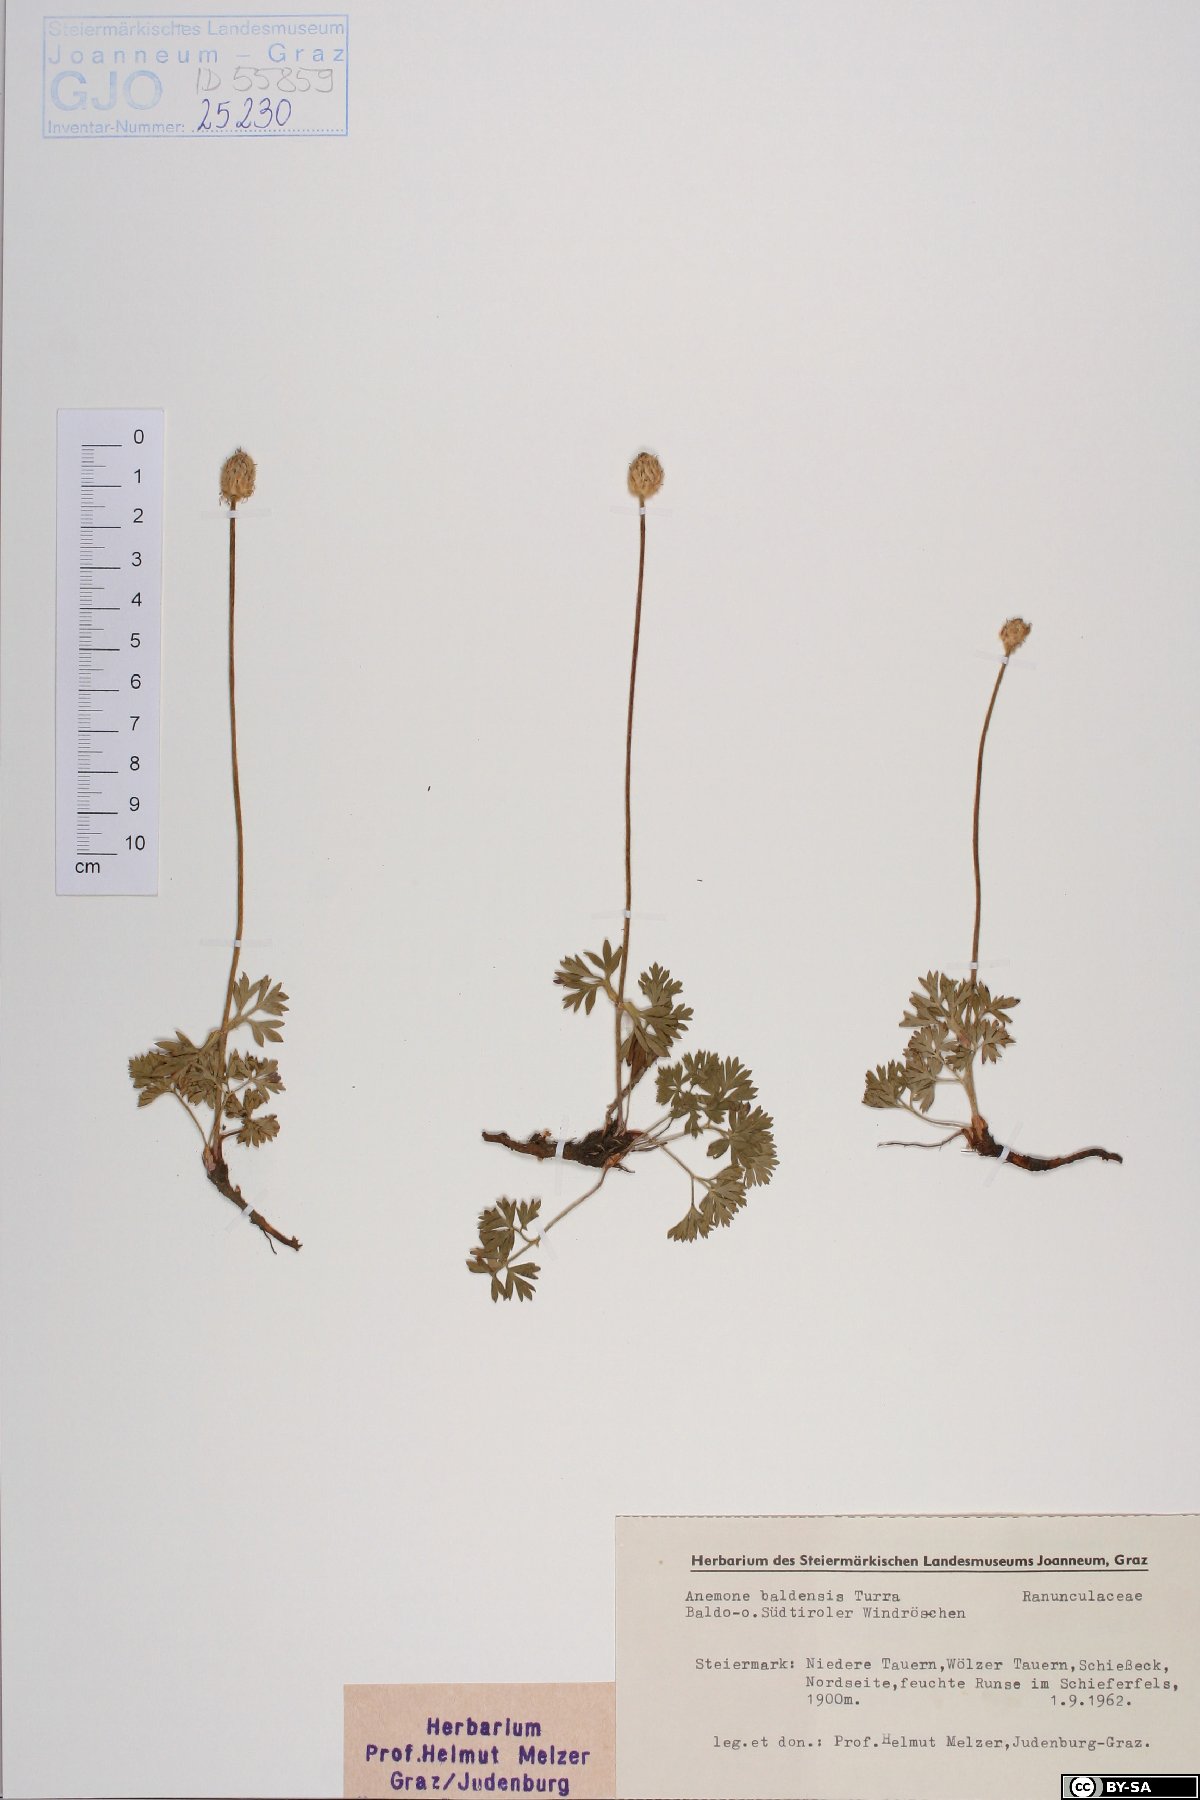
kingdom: Plantae
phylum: Tracheophyta
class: Magnoliopsida
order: Ranunculales
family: Ranunculaceae
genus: Anemone
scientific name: Anemone baldensis
